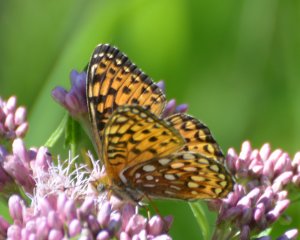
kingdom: Animalia
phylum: Arthropoda
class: Insecta
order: Lepidoptera
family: Nymphalidae
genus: Speyeria
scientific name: Speyeria atlantis
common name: Atlantis Fritillary
